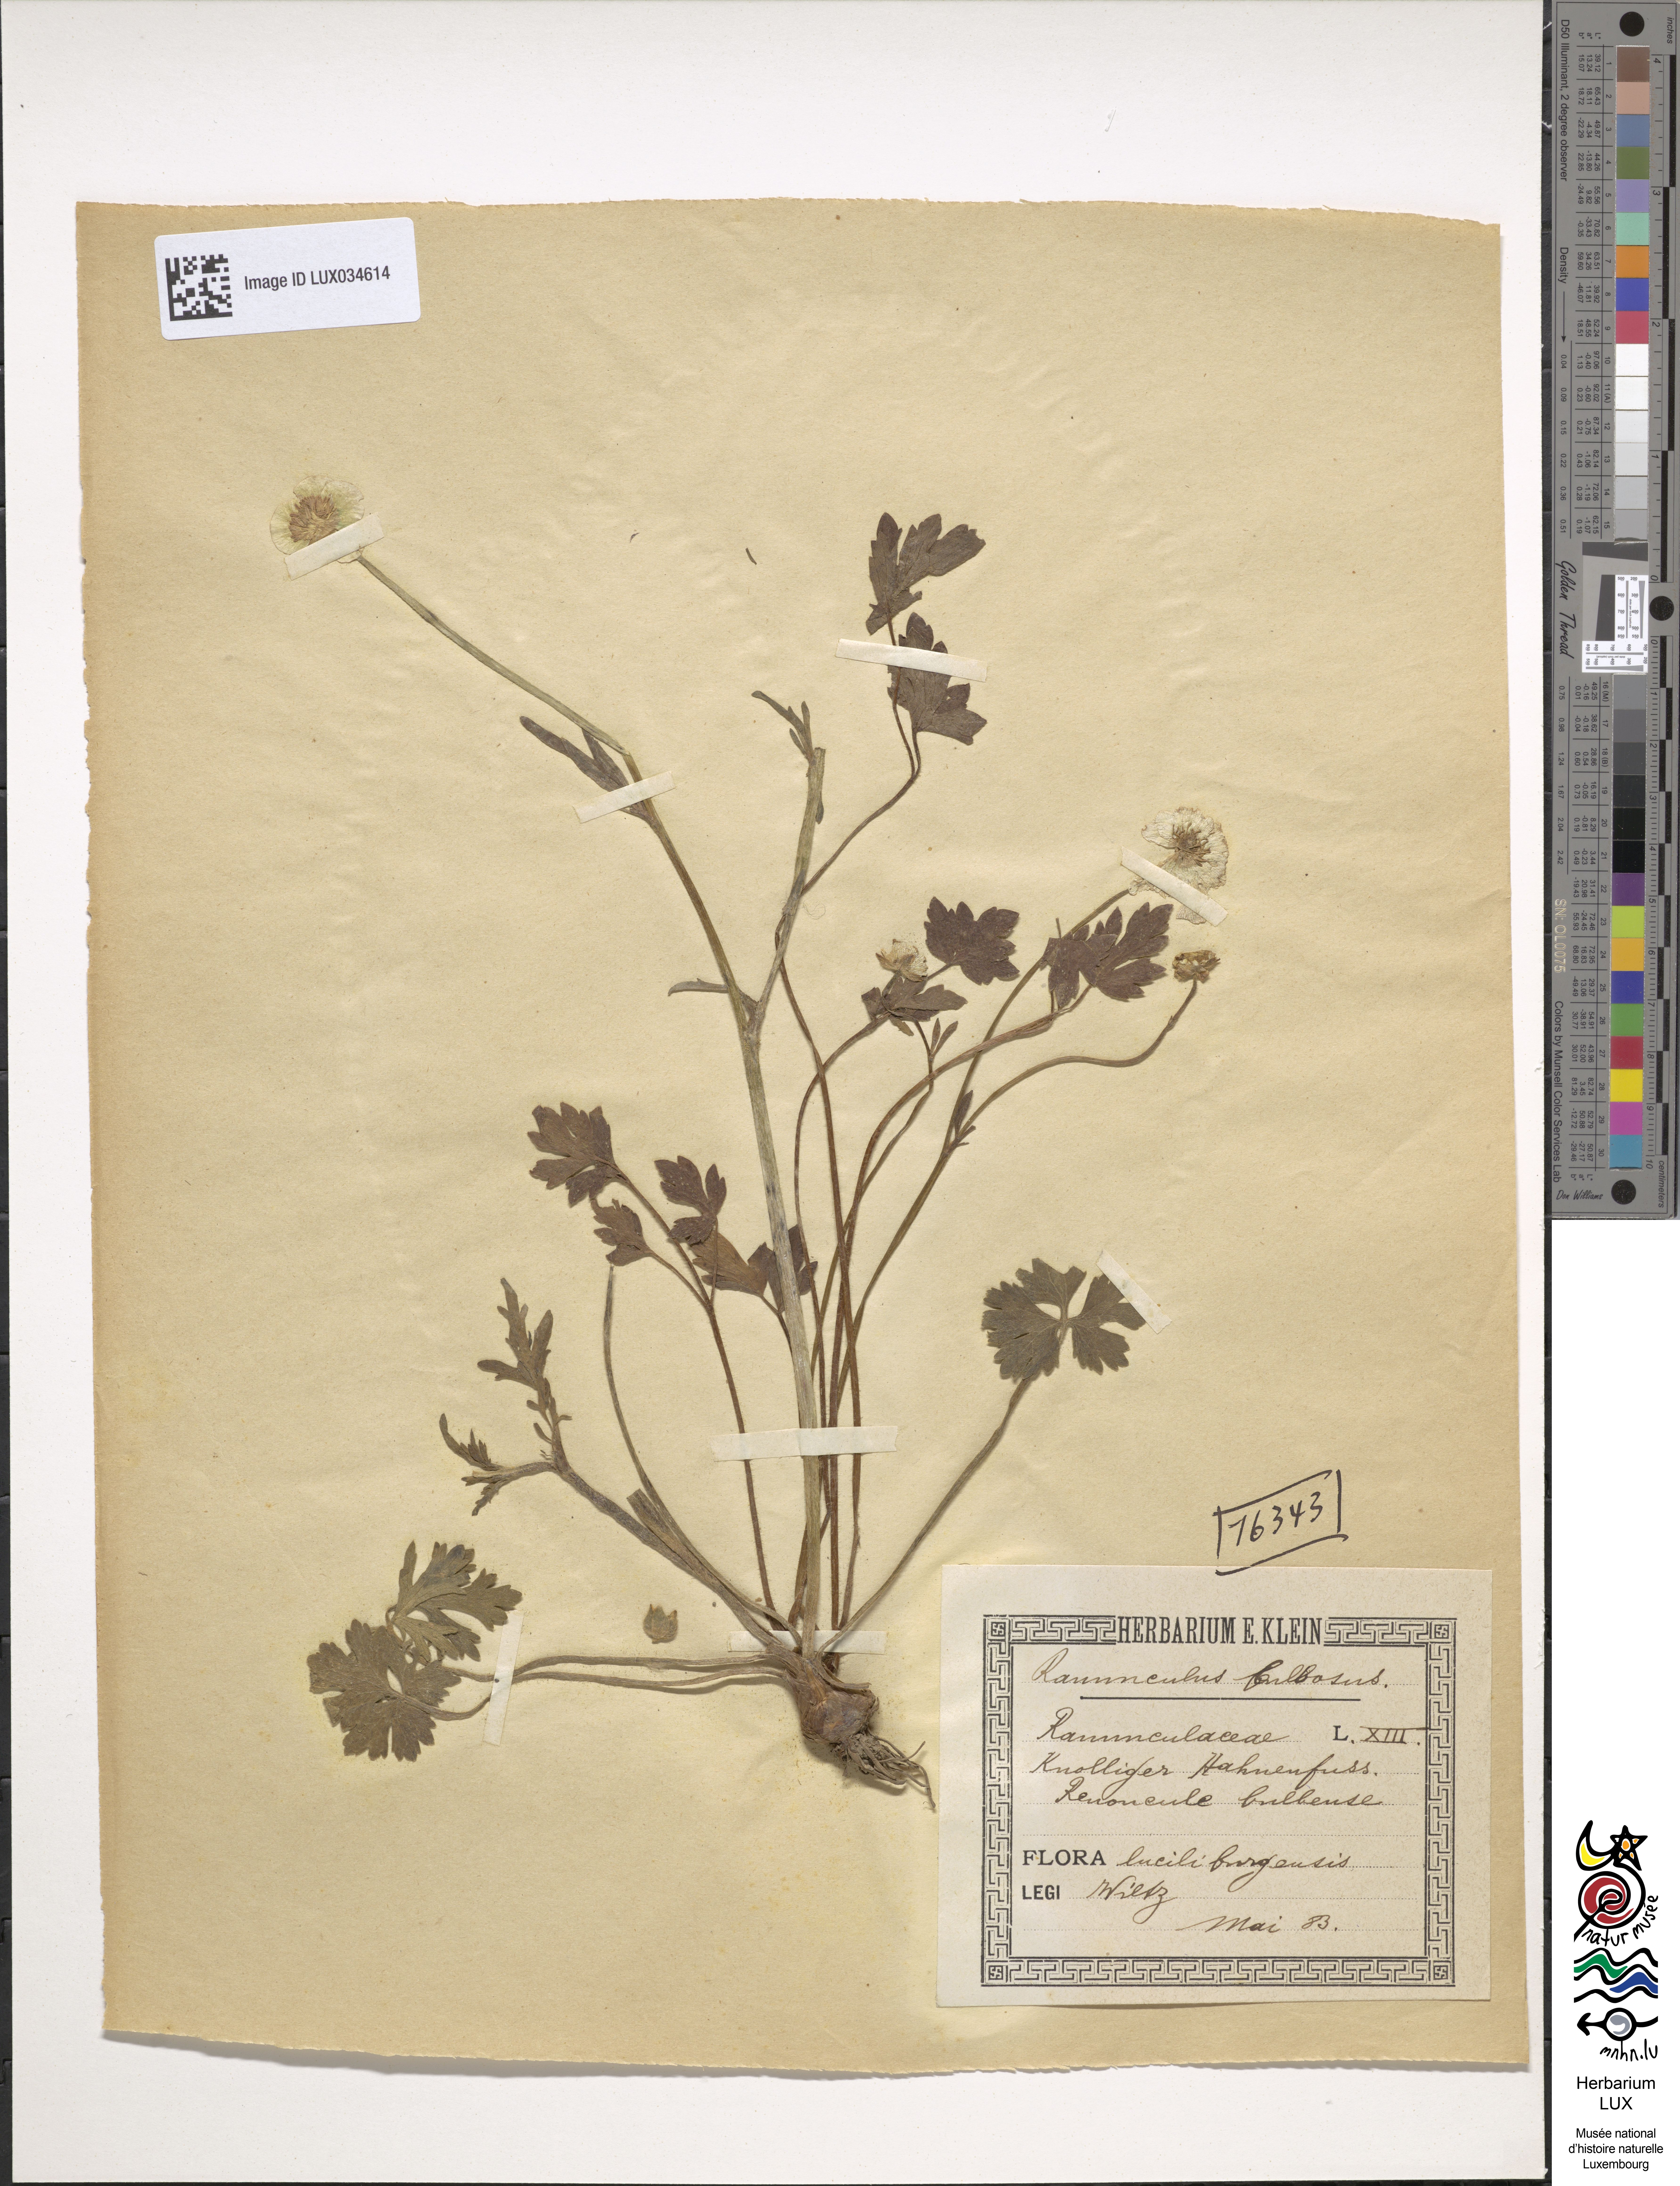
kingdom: Plantae
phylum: Tracheophyta
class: Magnoliopsida
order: Ranunculales
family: Ranunculaceae
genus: Ranunculus
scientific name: Ranunculus bulbosus
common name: Bulbous buttercup
